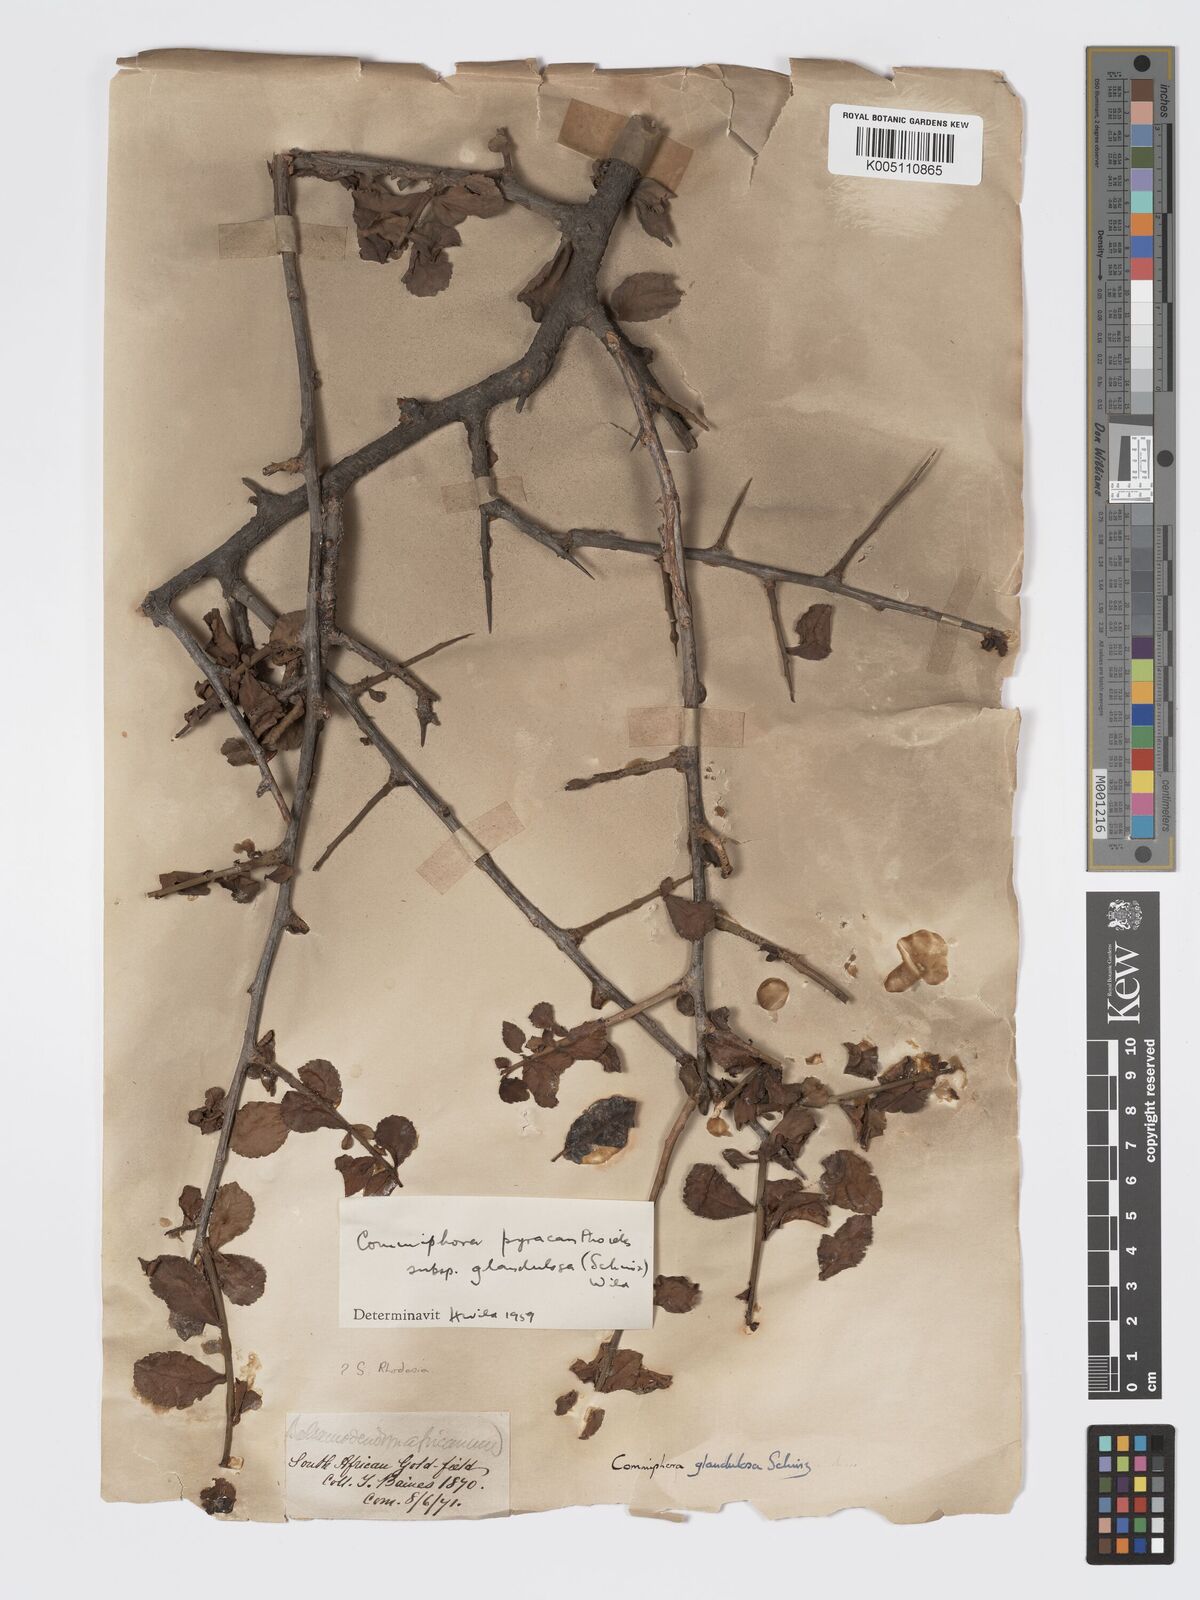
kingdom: Plantae
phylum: Tracheophyta
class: Magnoliopsida
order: Sapindales
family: Burseraceae
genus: Commiphora
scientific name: Commiphora pyracanthoides
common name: Cork tree
